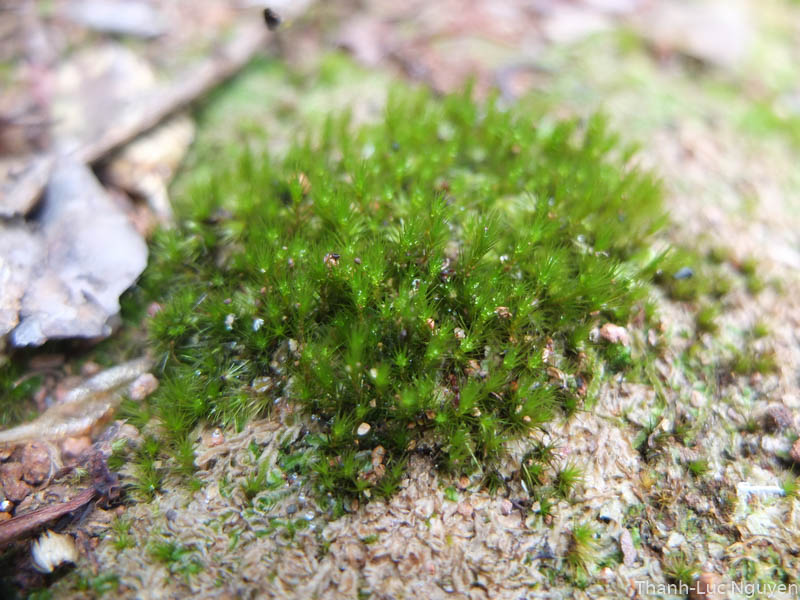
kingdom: Plantae
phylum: Bryophyta
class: Bryopsida
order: Dicranales
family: Leucobryaceae
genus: Campylopus
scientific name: Campylopus
